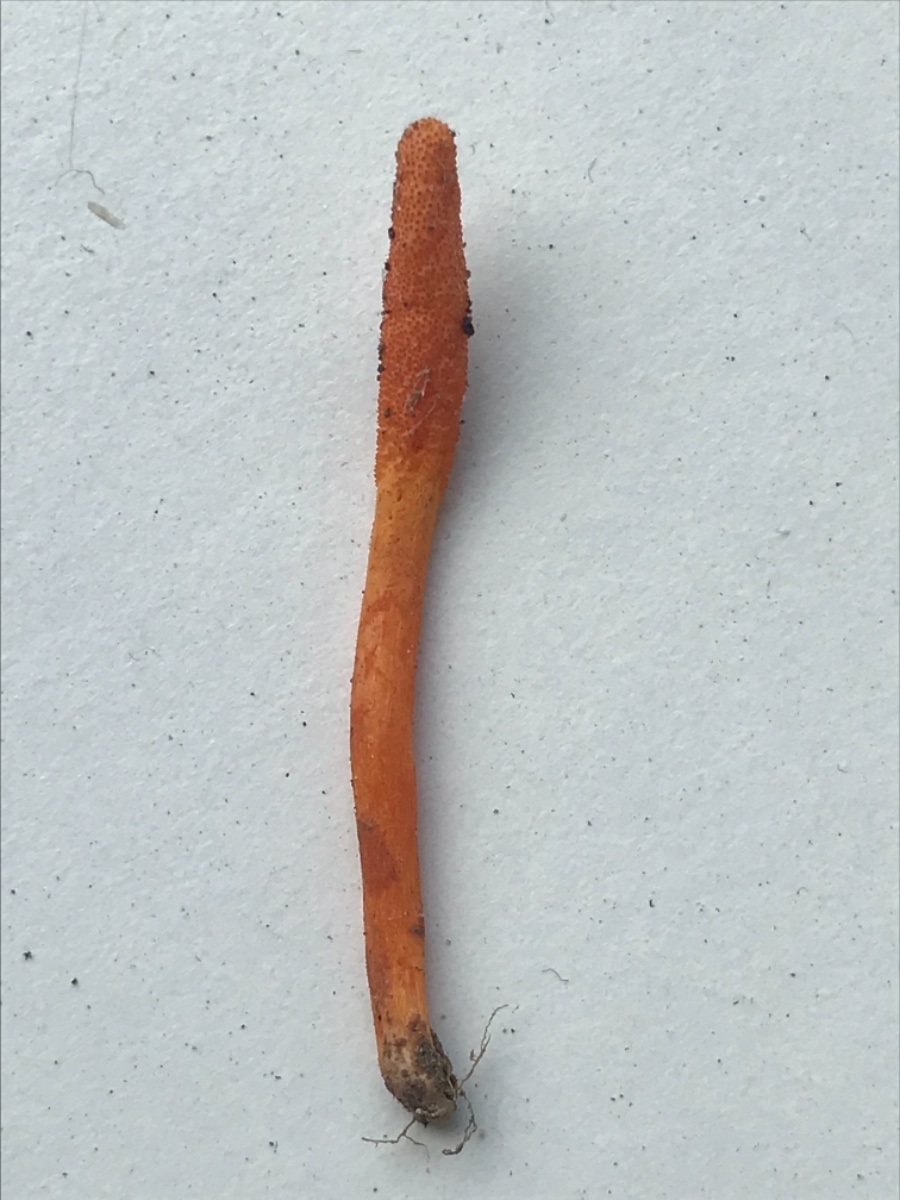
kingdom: Fungi
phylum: Ascomycota
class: Sordariomycetes
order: Hypocreales
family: Cordycipitaceae
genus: Cordyceps
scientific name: Cordyceps militaris
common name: puppe-snyltekølle
